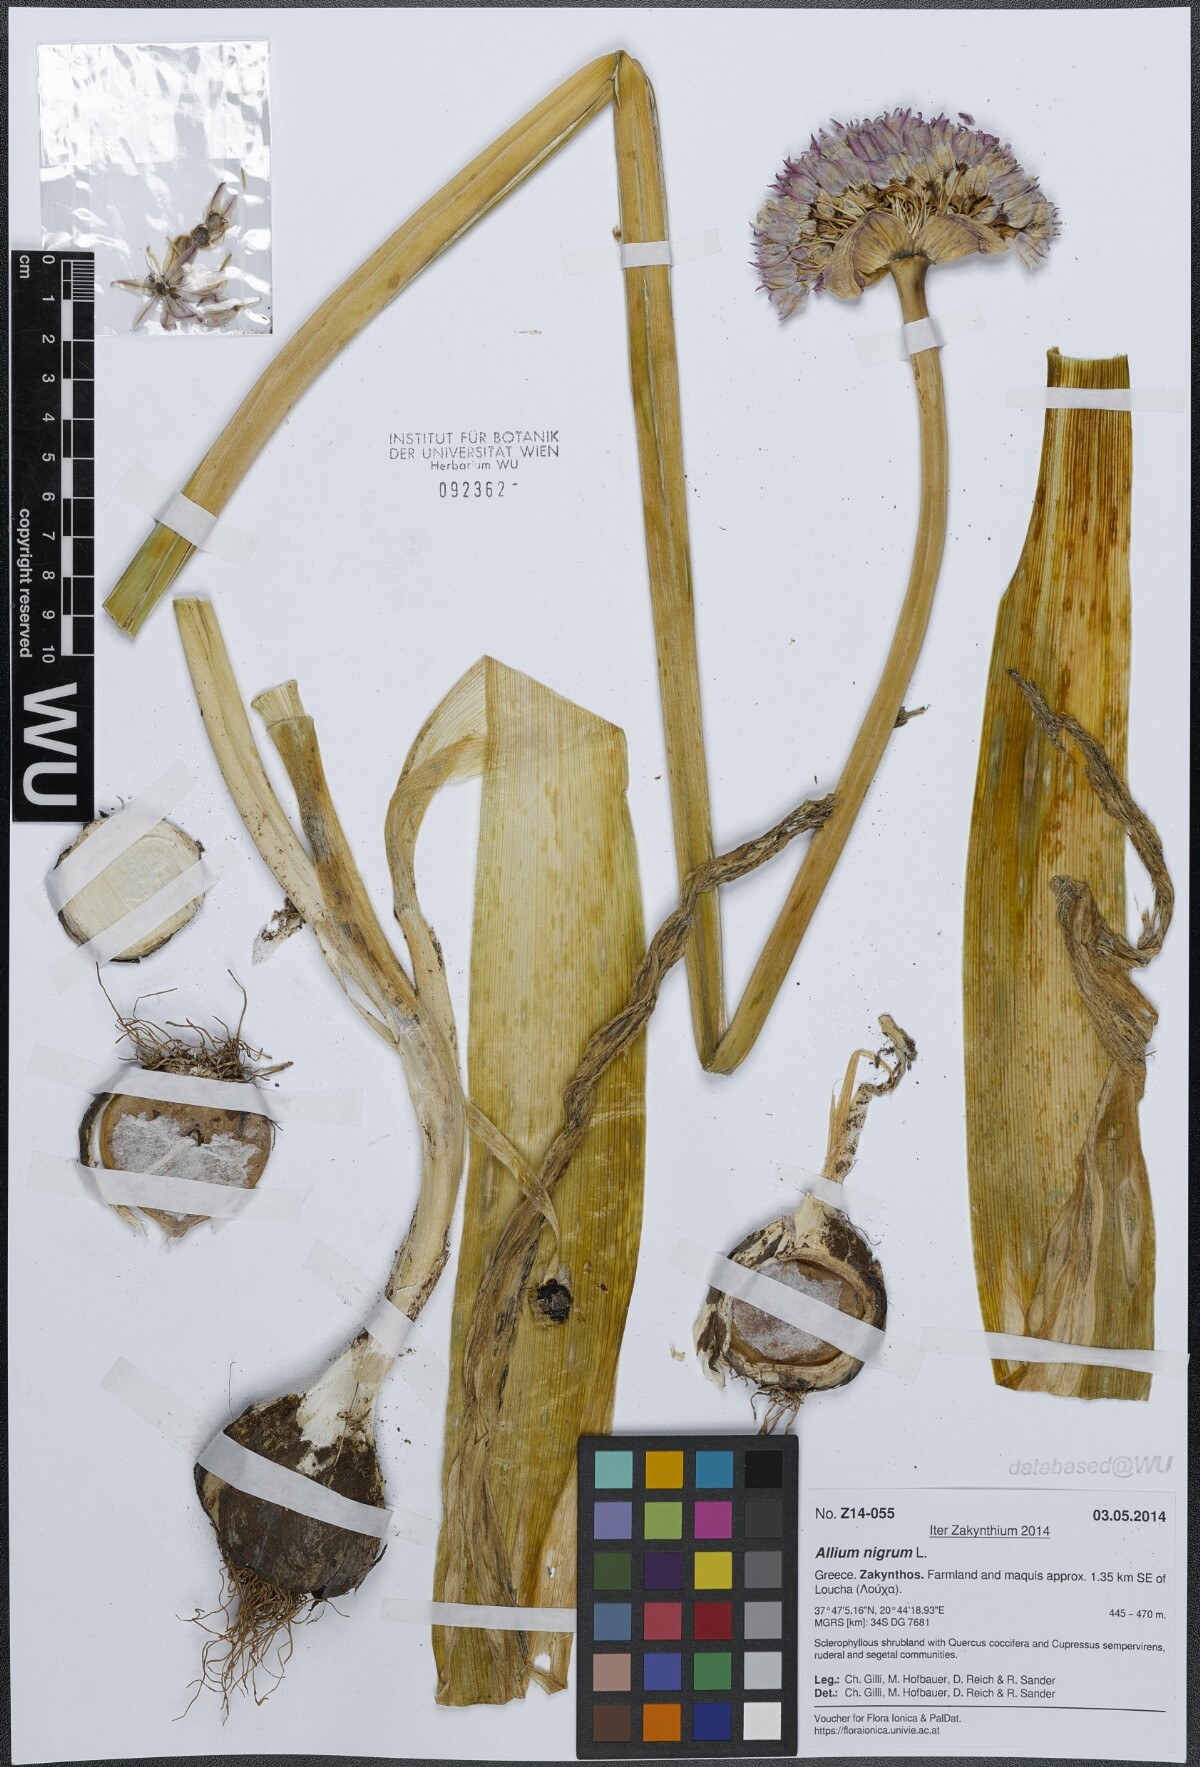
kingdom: Plantae
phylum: Tracheophyta
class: Liliopsida
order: Asparagales
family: Amaryllidaceae
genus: Allium
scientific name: Allium nigrum
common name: Black garlic
